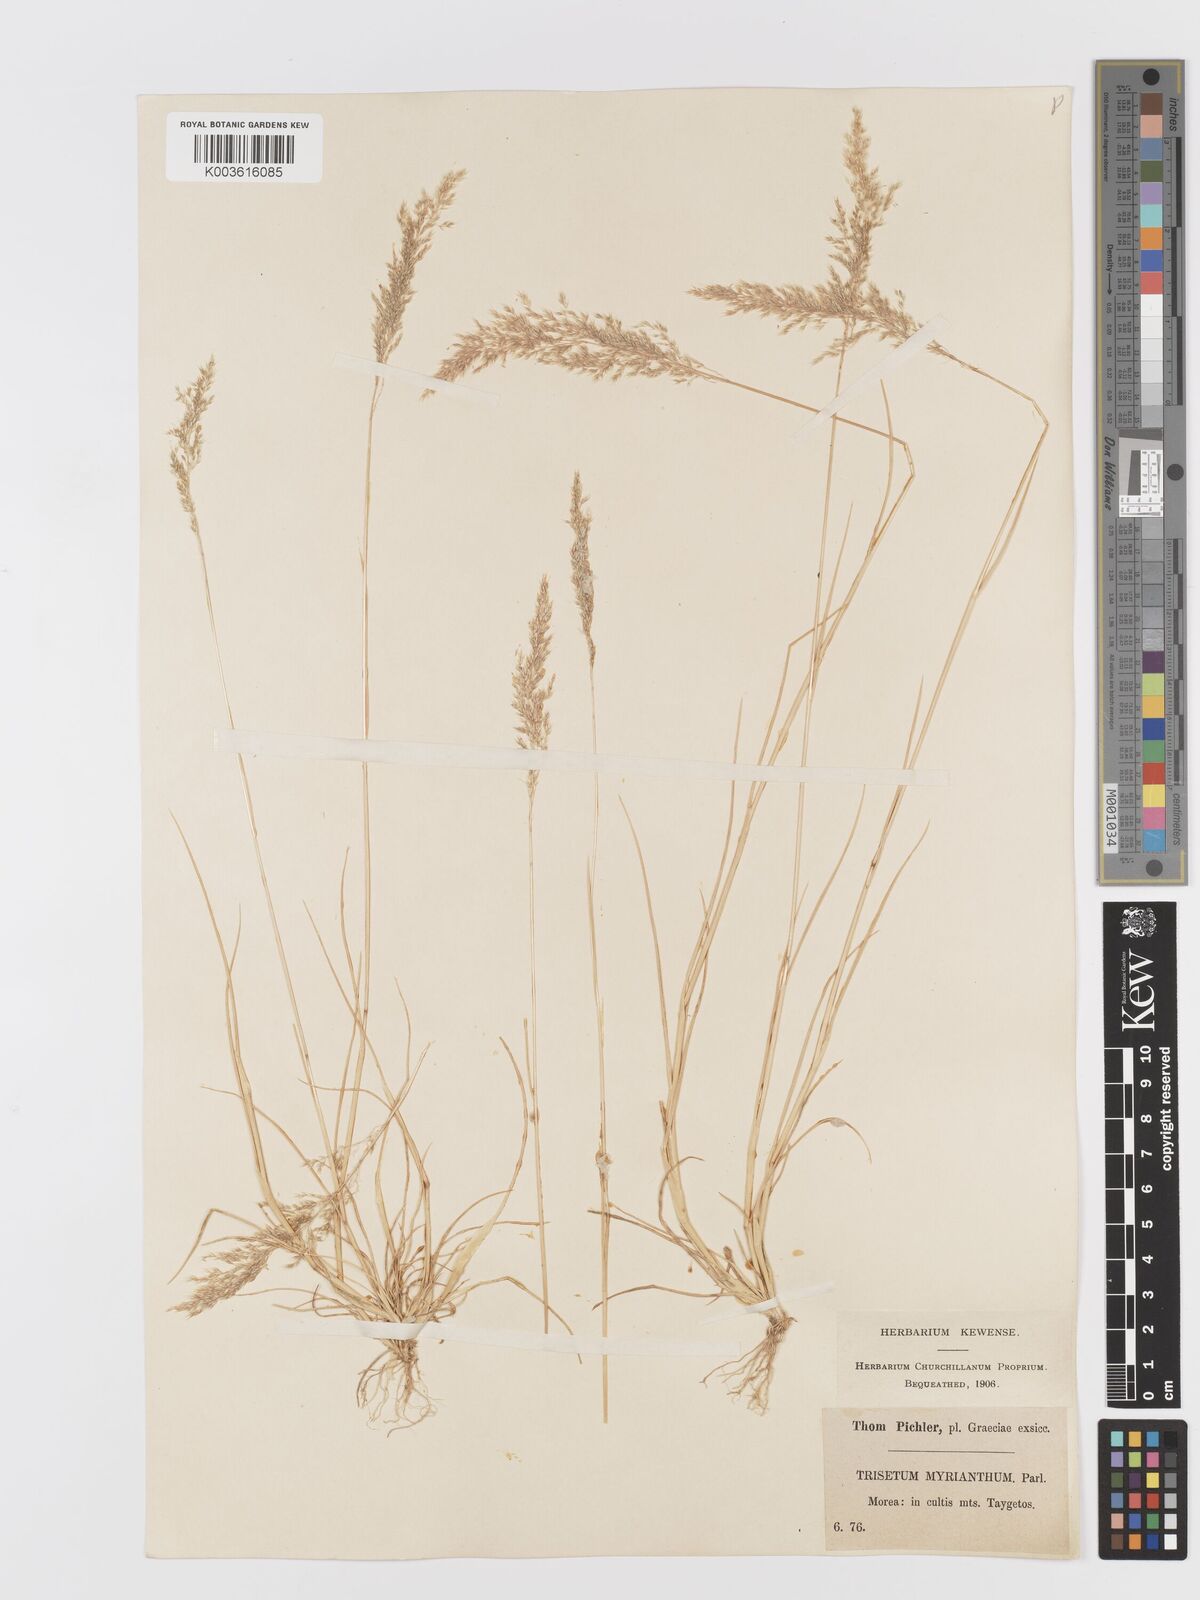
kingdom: Plantae
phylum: Tracheophyta
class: Liliopsida
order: Poales
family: Poaceae
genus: Parvotrisetum
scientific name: Parvotrisetum myrianthum
